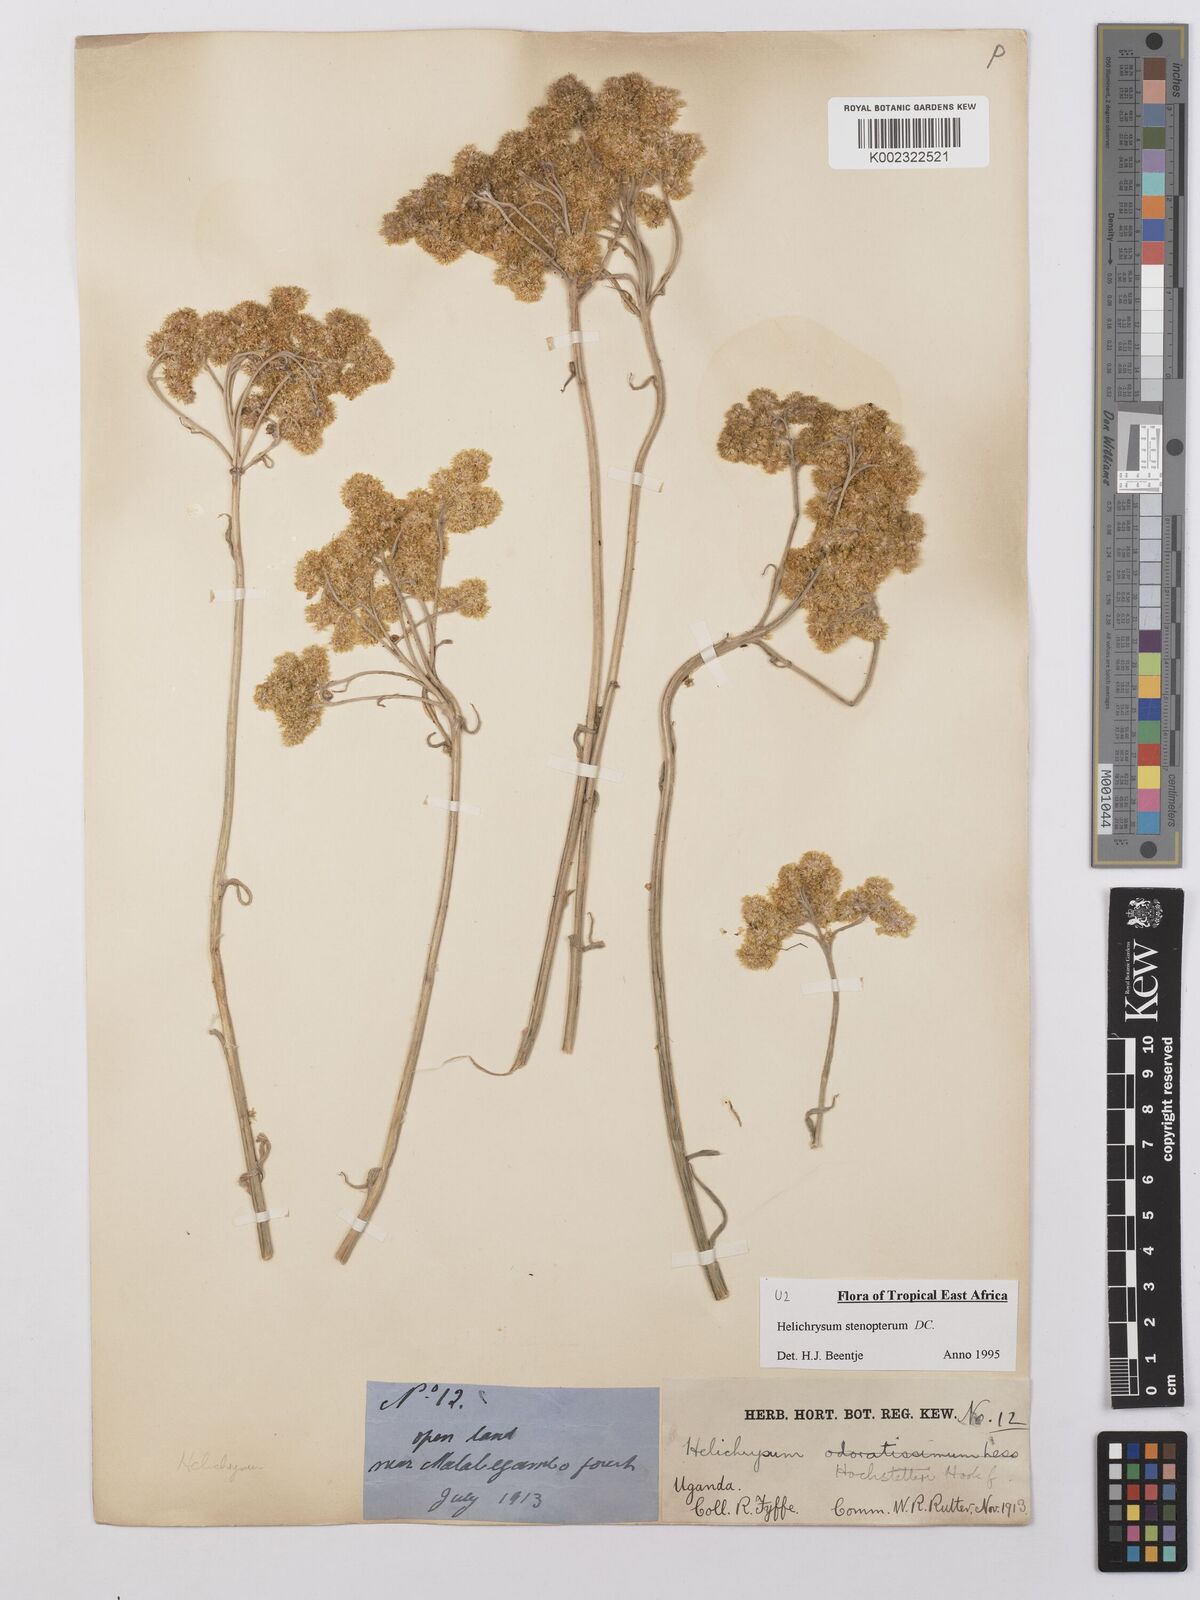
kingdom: Plantae
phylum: Tracheophyta
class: Magnoliopsida
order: Asterales
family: Asteraceae
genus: Helichrysum
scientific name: Helichrysum stenopterum
